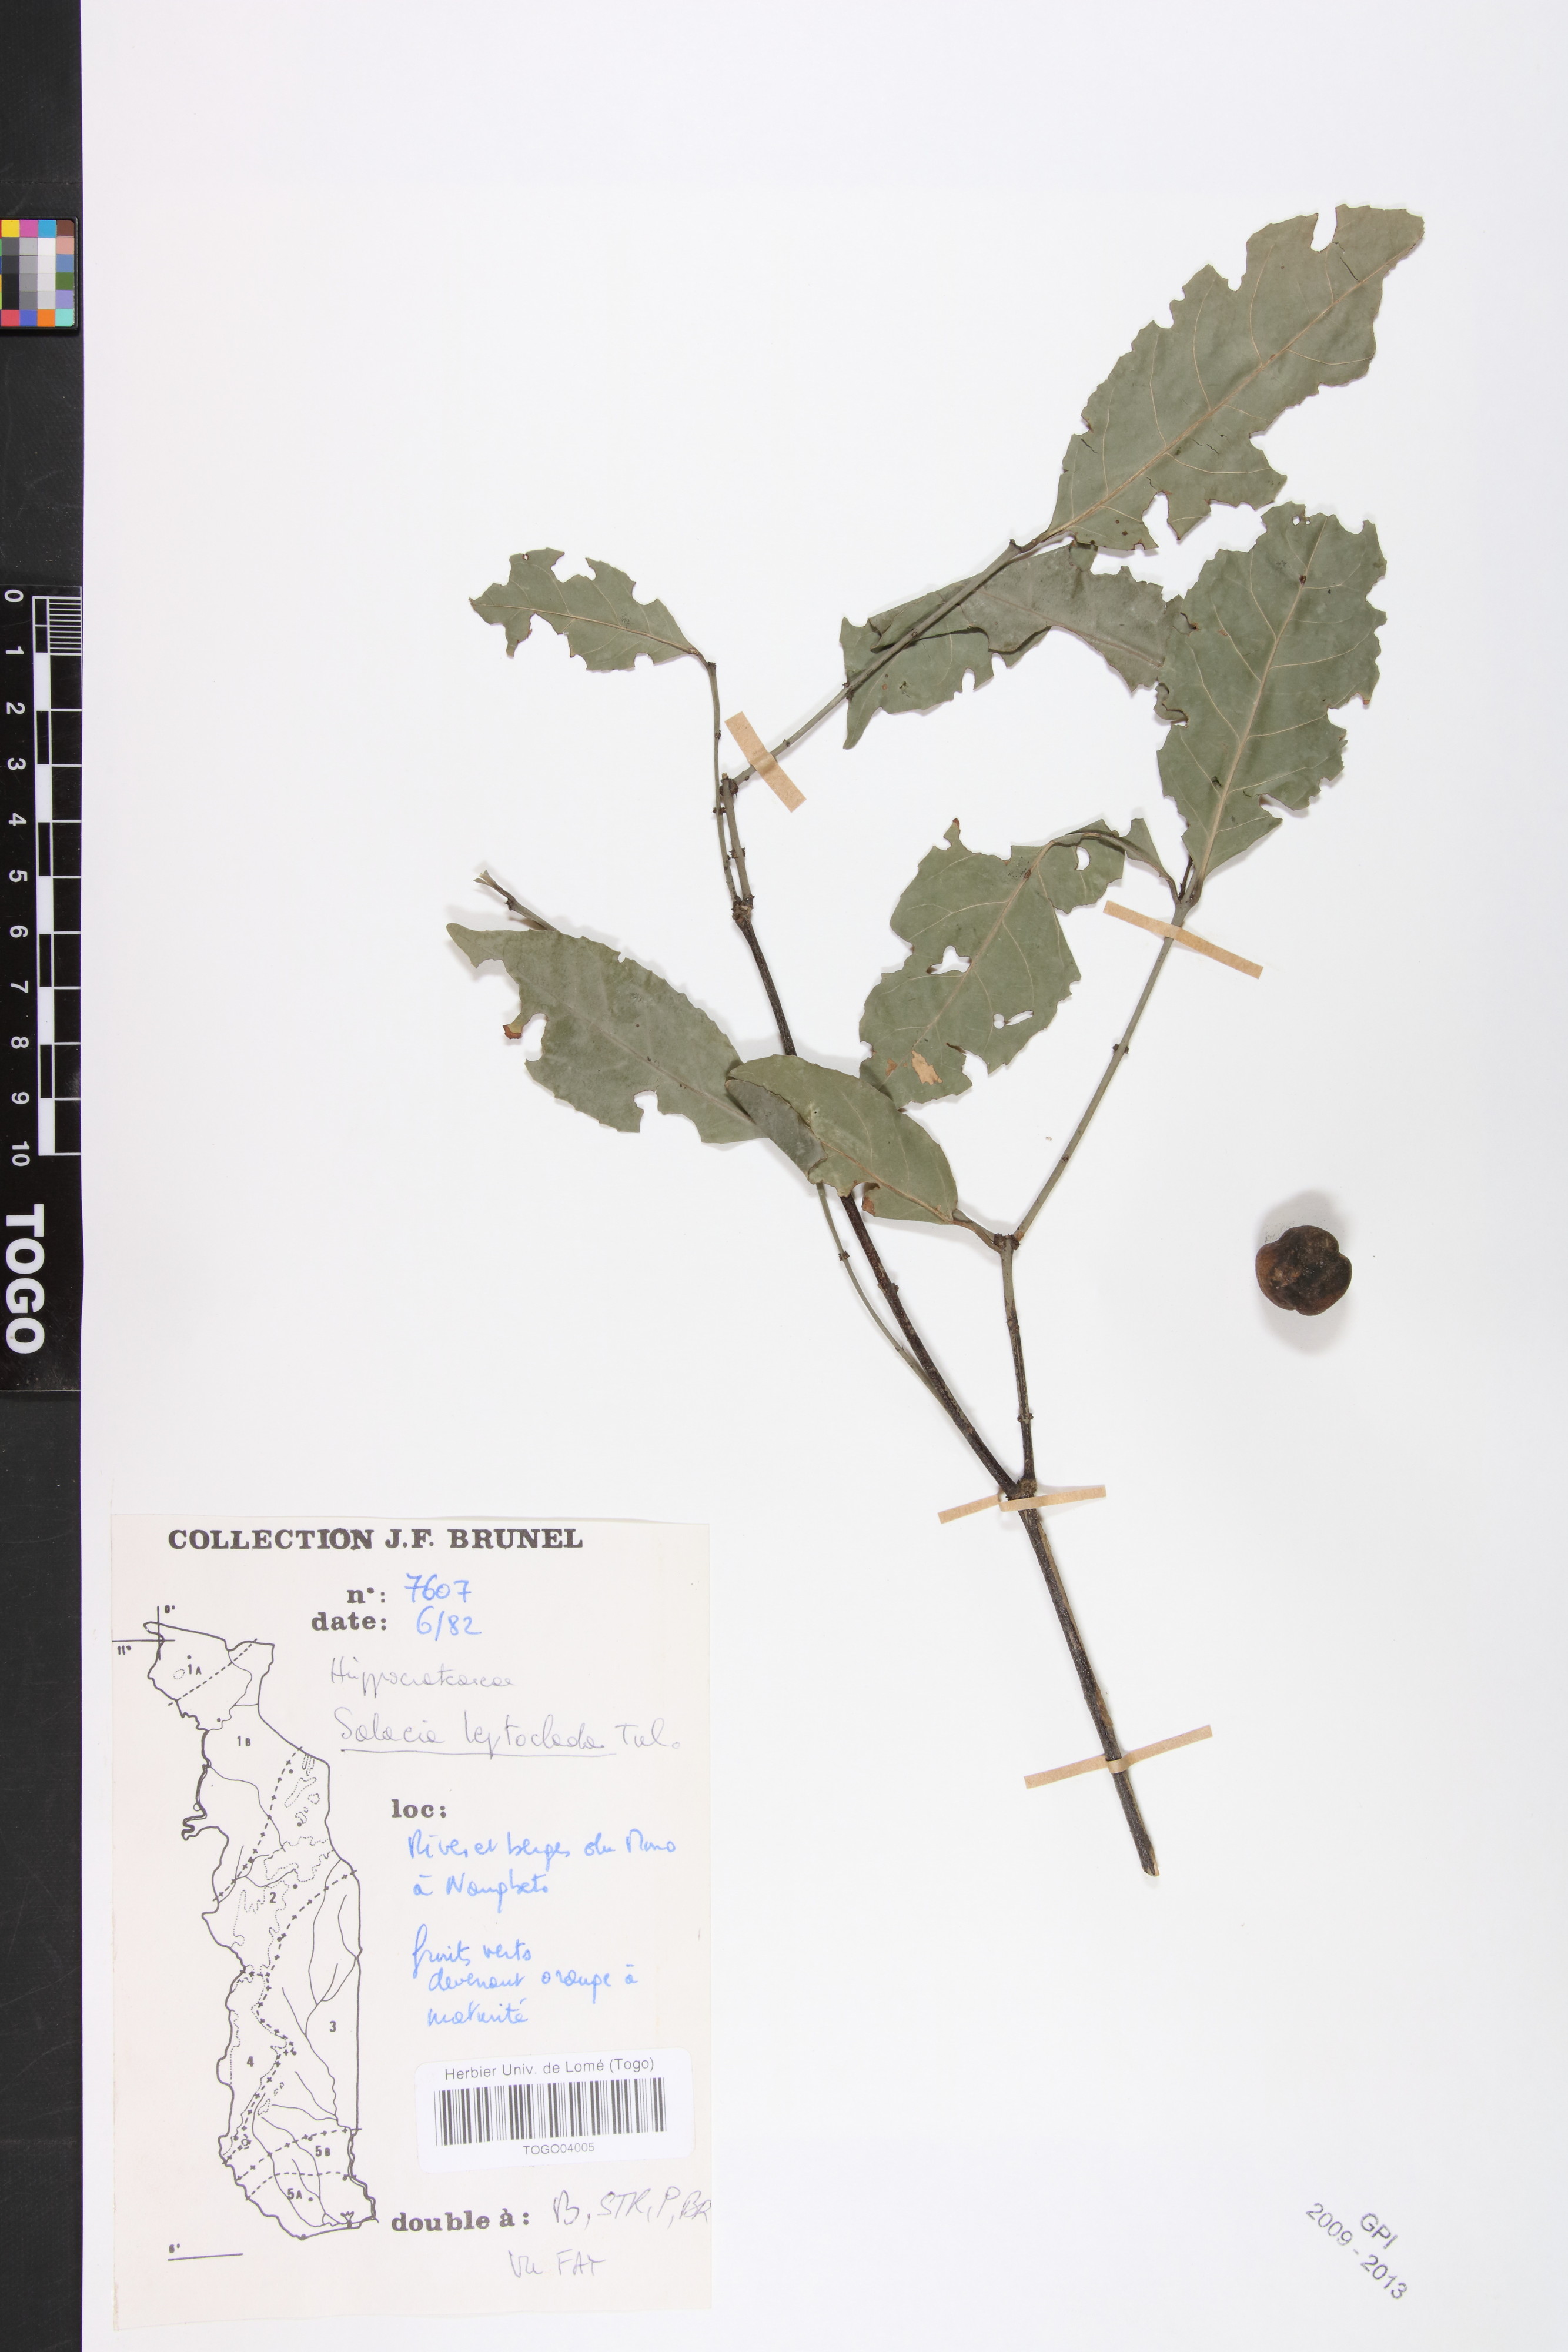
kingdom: Plantae
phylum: Tracheophyta
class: Magnoliopsida
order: Celastrales
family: Celastraceae
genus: Salacia
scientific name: Salacia leptoclada
